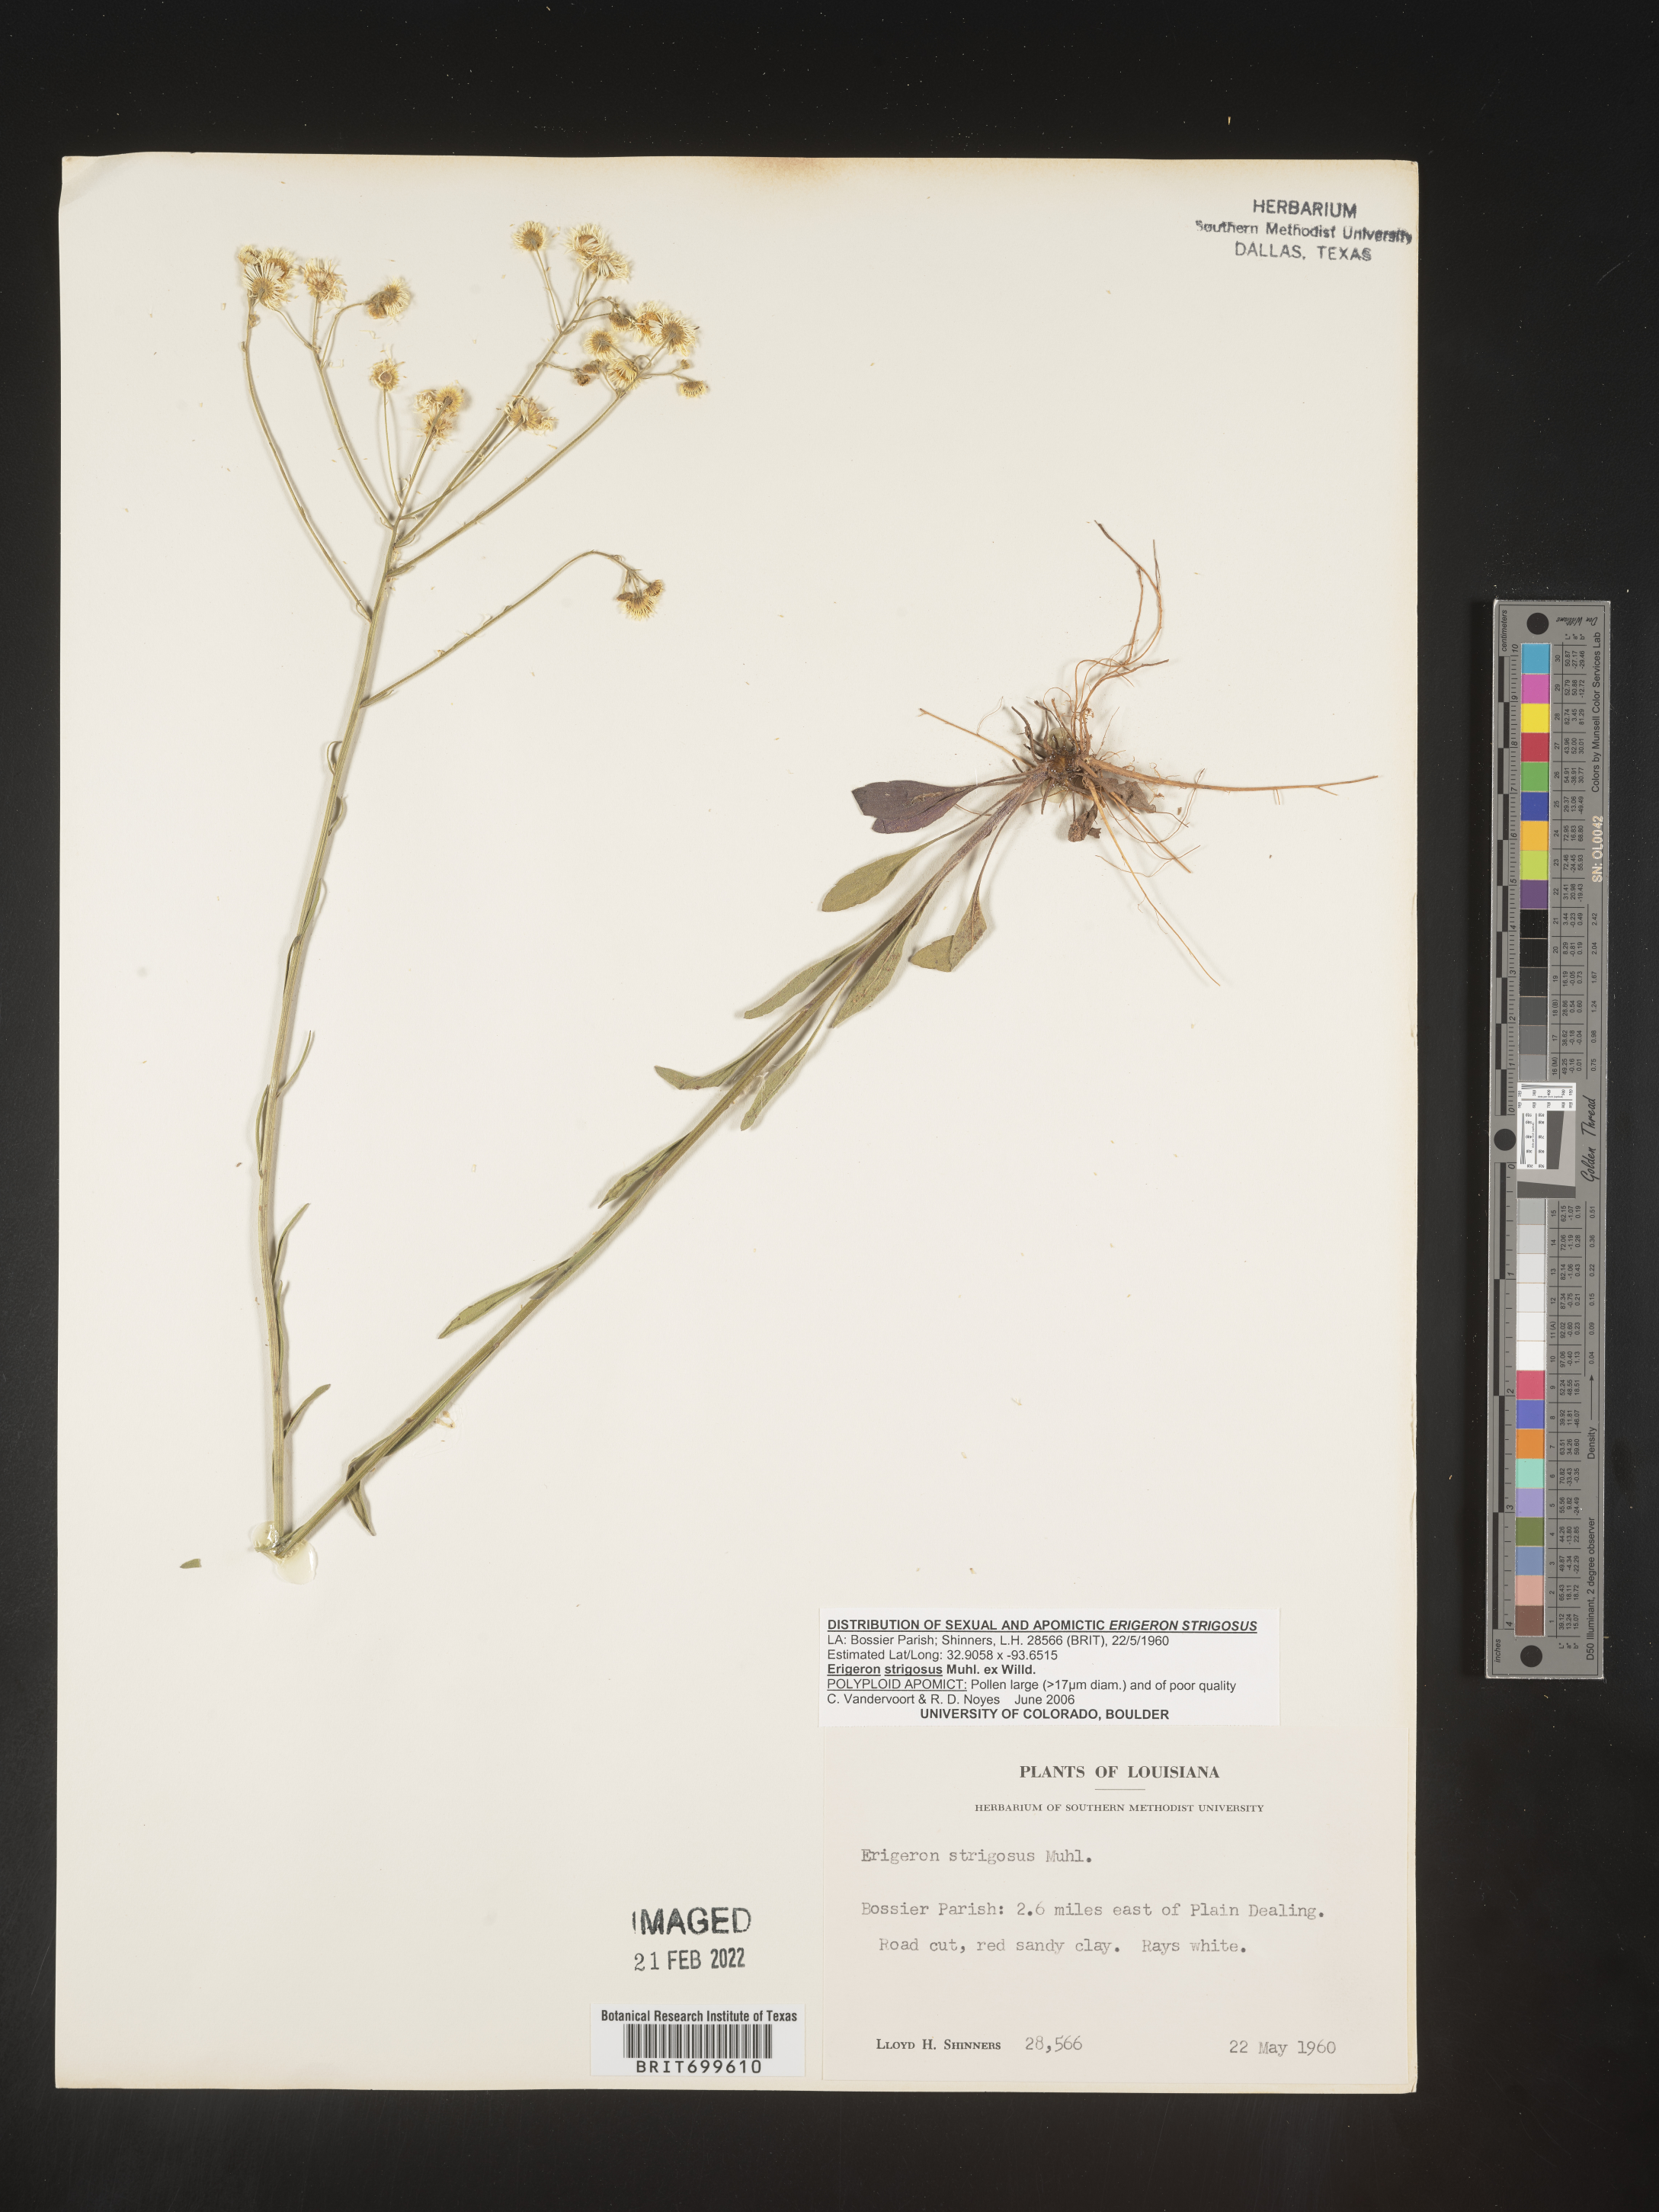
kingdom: Plantae
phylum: Tracheophyta
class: Magnoliopsida
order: Asterales
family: Asteraceae
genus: Erigeron
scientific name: Erigeron strigosus
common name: Common eastern fleabane
